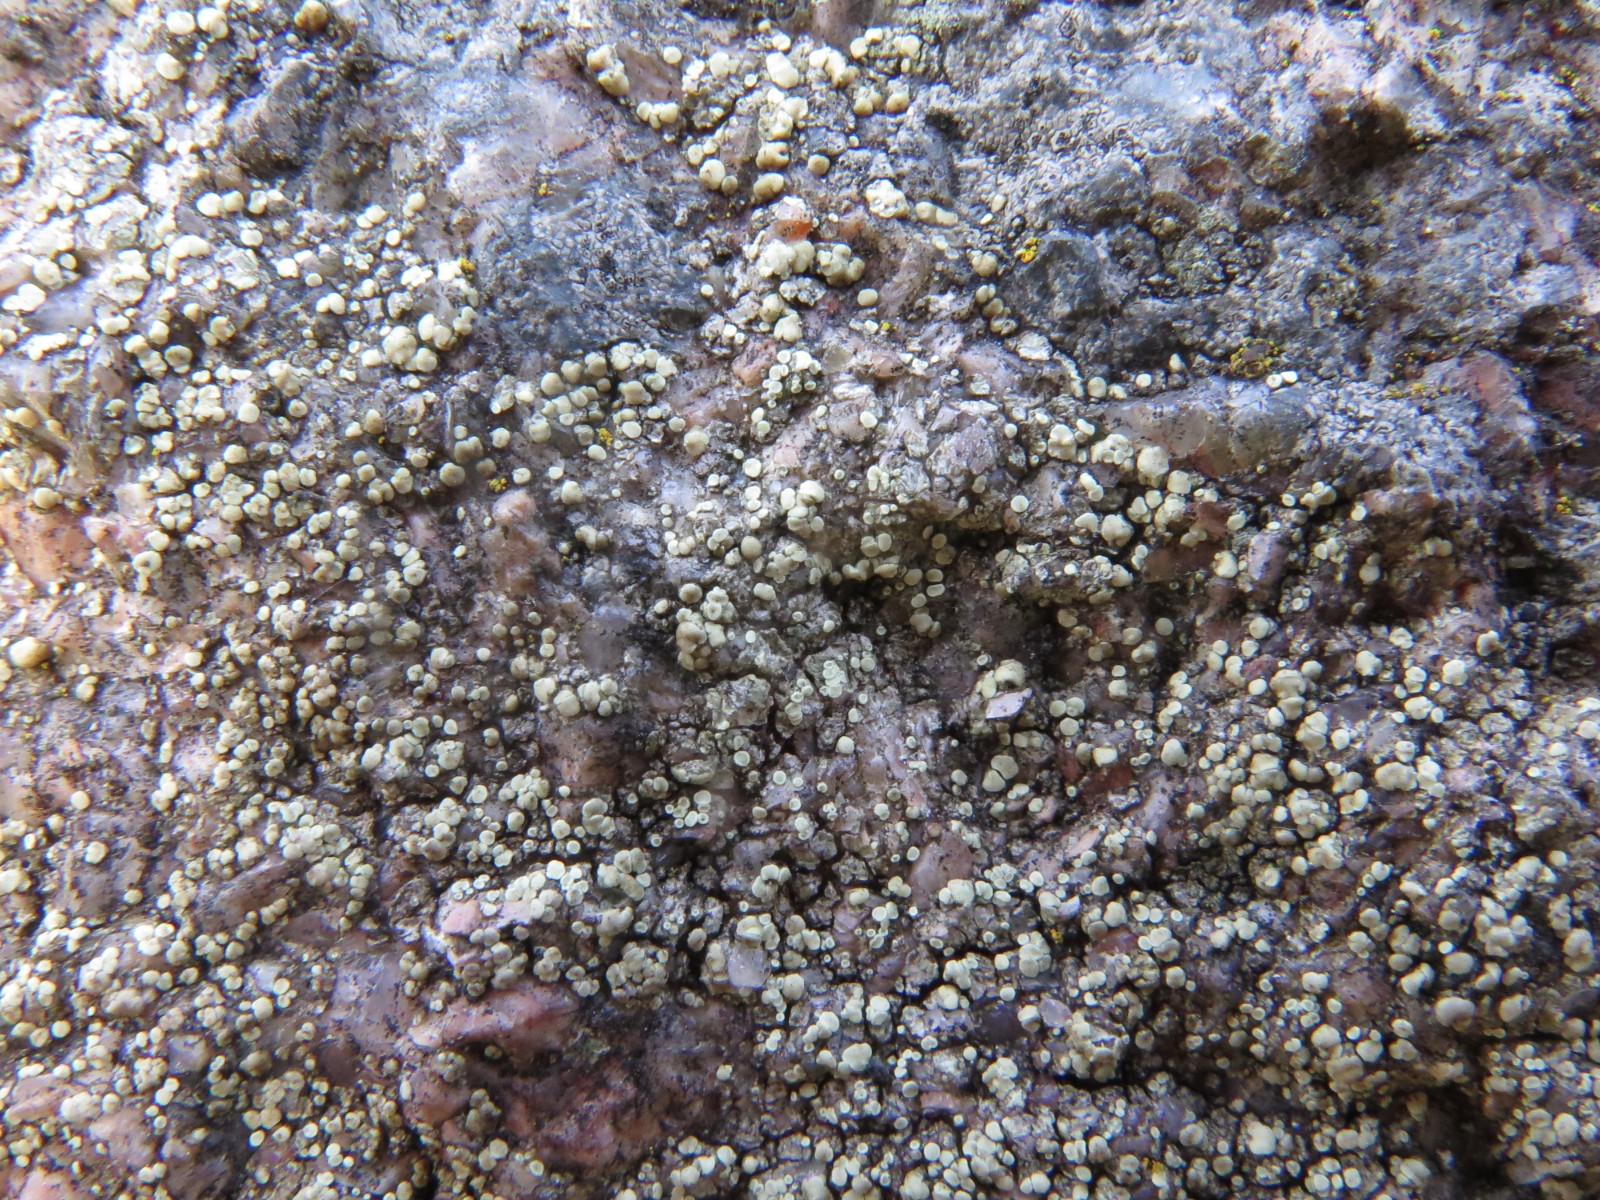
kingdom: Fungi
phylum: Ascomycota
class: Lecanoromycetes
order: Lecanorales
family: Lecanoraceae
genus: Lecanora
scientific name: Lecanora polytropa
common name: bleggrøn kantskivelav
